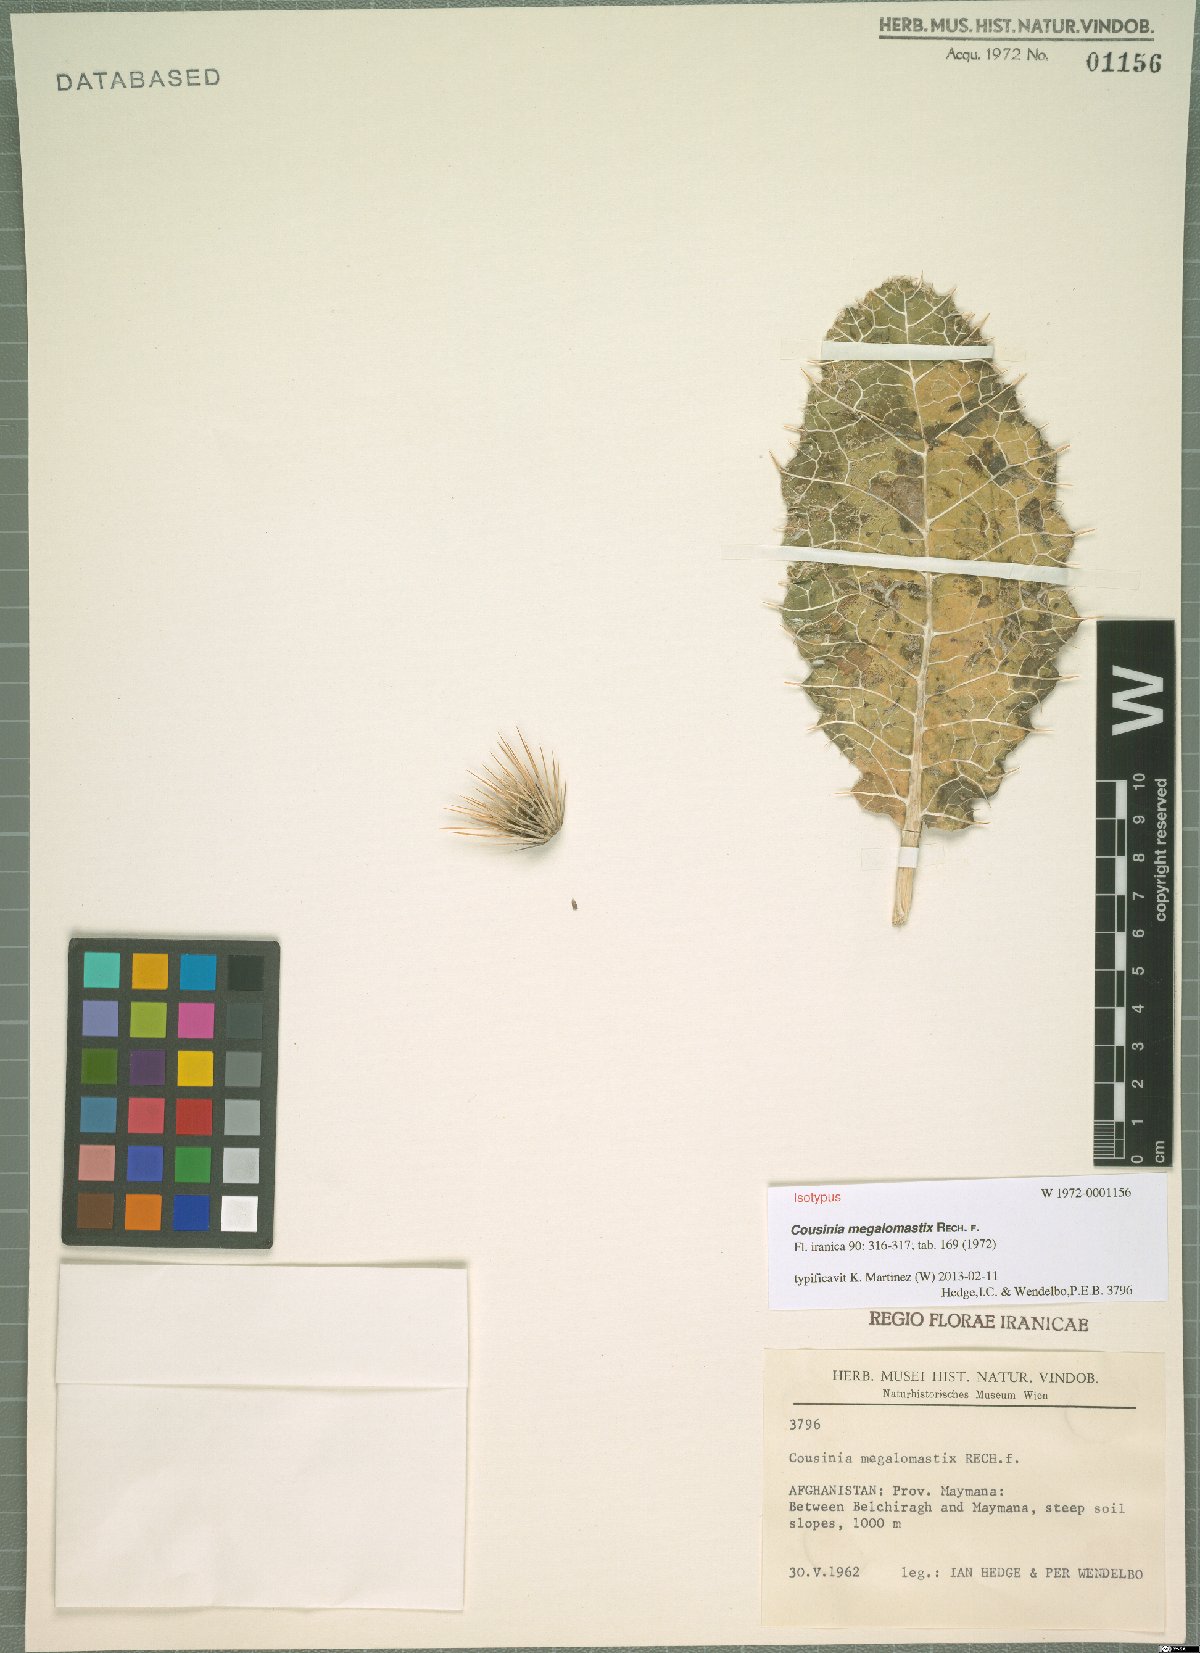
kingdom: Plantae
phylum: Tracheophyta
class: Magnoliopsida
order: Asterales
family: Asteraceae
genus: Cousinia
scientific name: Cousinia megalomastix
